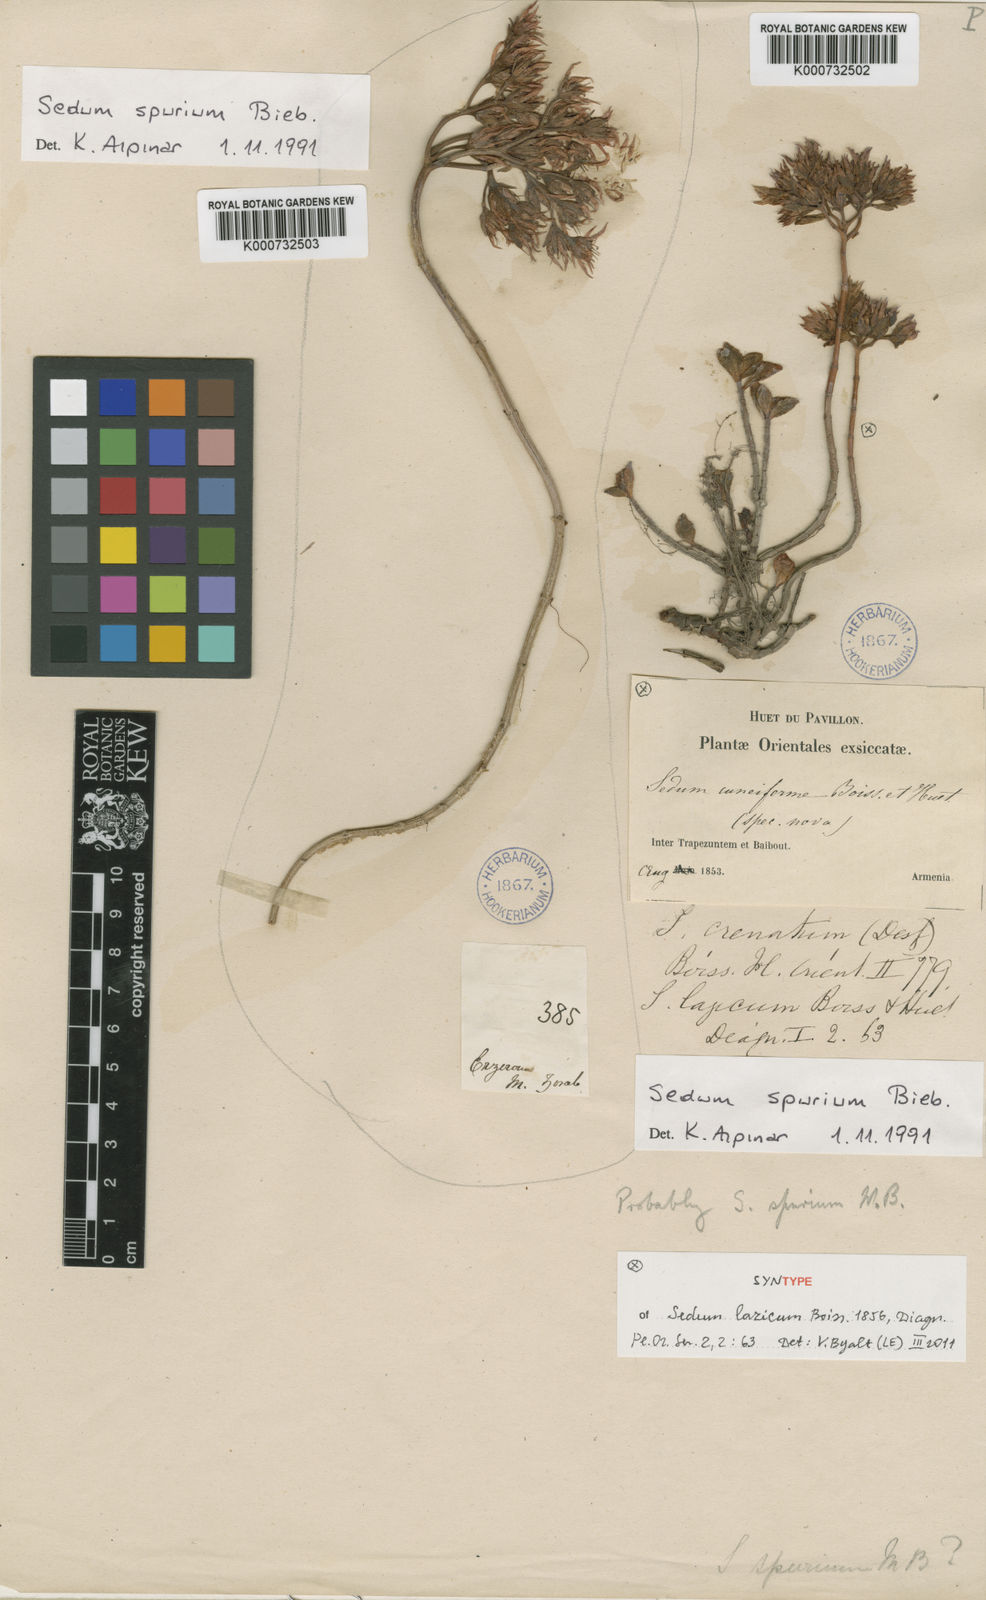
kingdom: Plantae
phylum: Tracheophyta
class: Magnoliopsida
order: Saxifragales
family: Crassulaceae
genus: Phedimus
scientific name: Phedimus spurius
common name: Caucasian stonecrop
